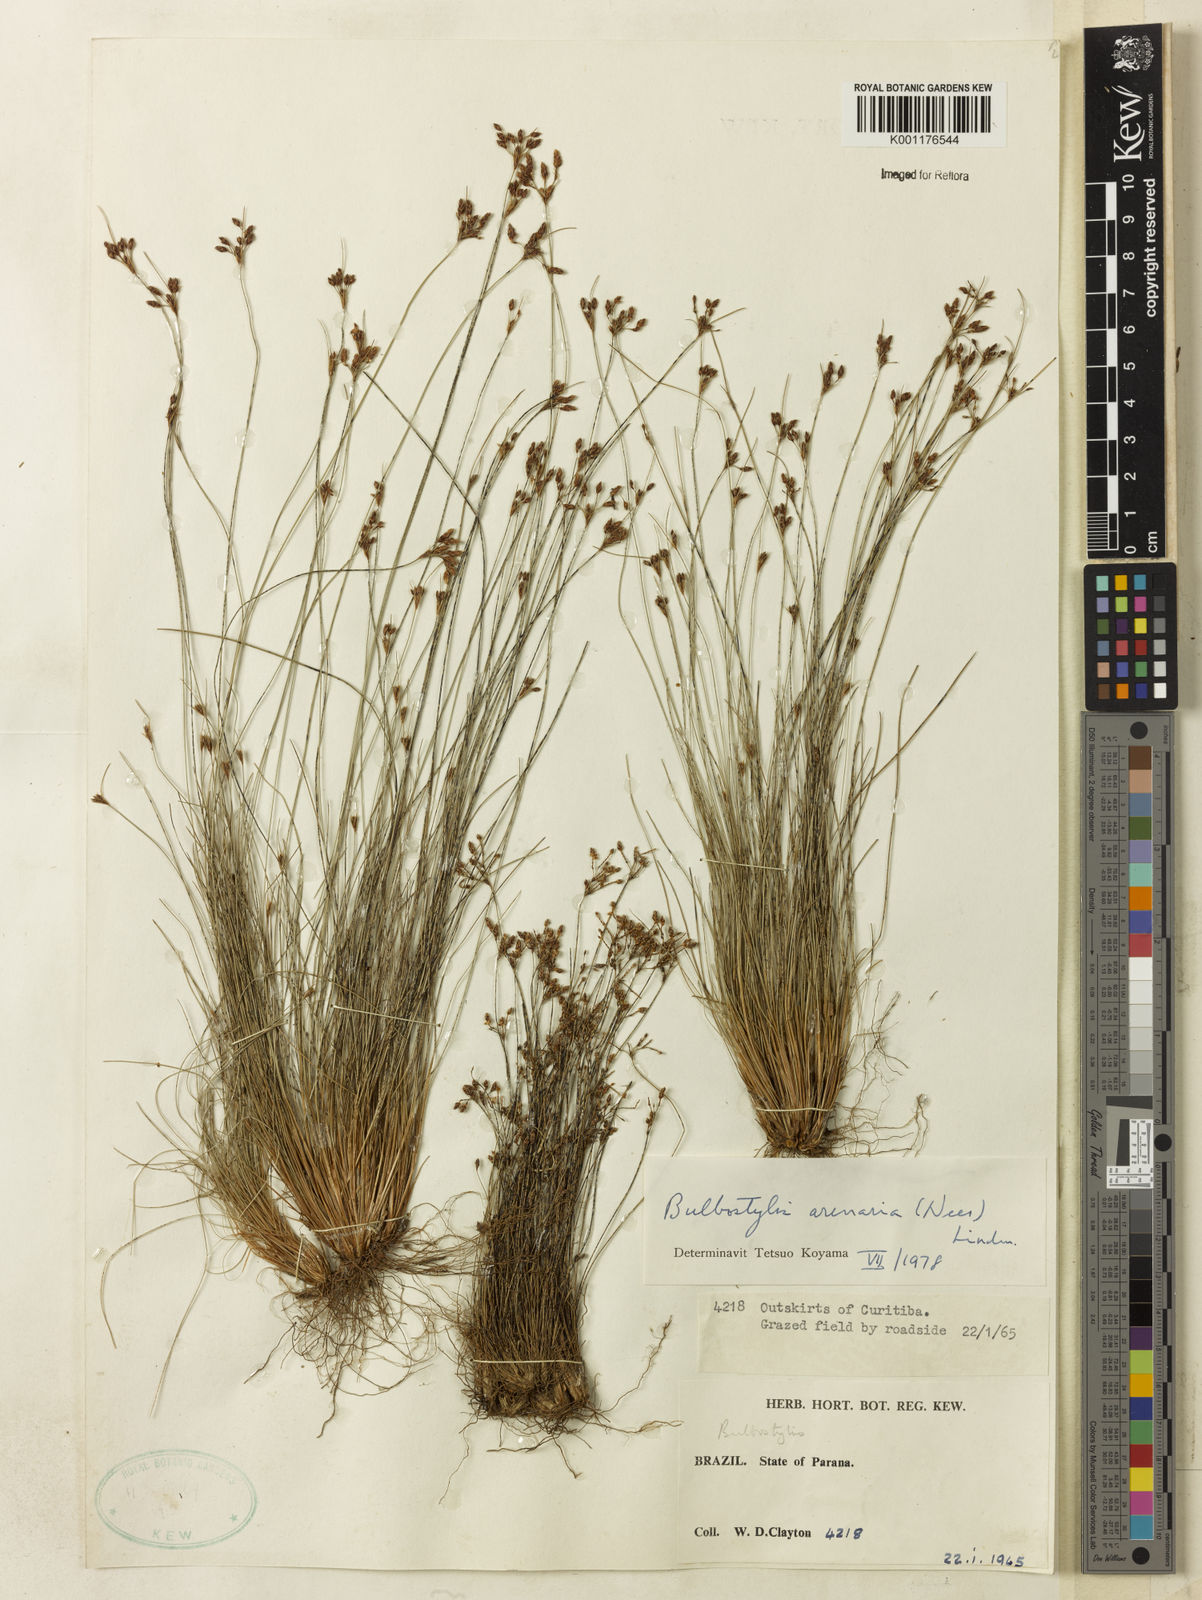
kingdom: Plantae
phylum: Tracheophyta
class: Liliopsida
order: Poales
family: Cyperaceae
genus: Bulbostylis
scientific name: Bulbostylis juncoides
